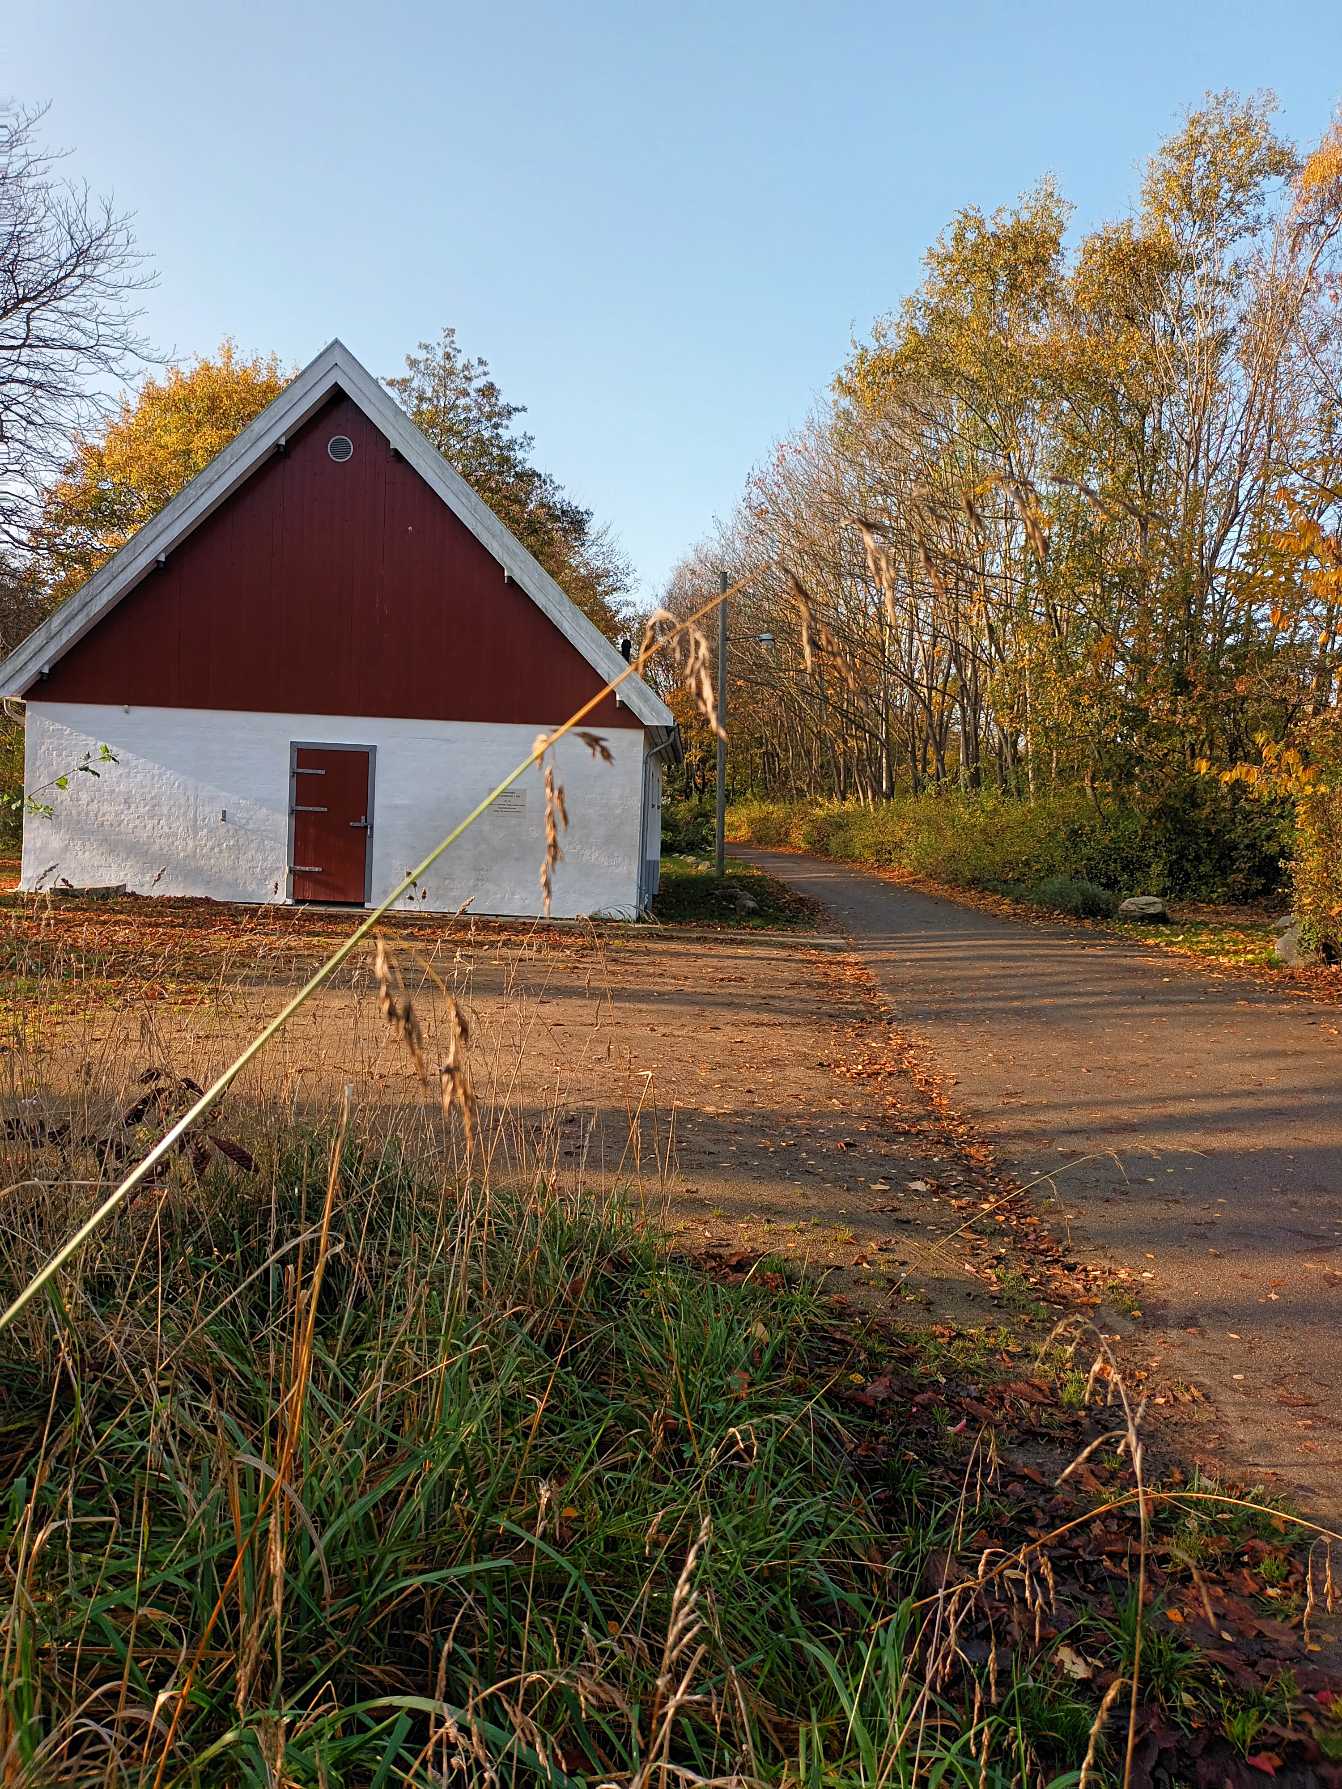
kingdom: Plantae
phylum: Tracheophyta
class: Liliopsida
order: Poales
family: Poaceae
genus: Bromus
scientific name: Bromus ramosus
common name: Sildig skov-hejre
